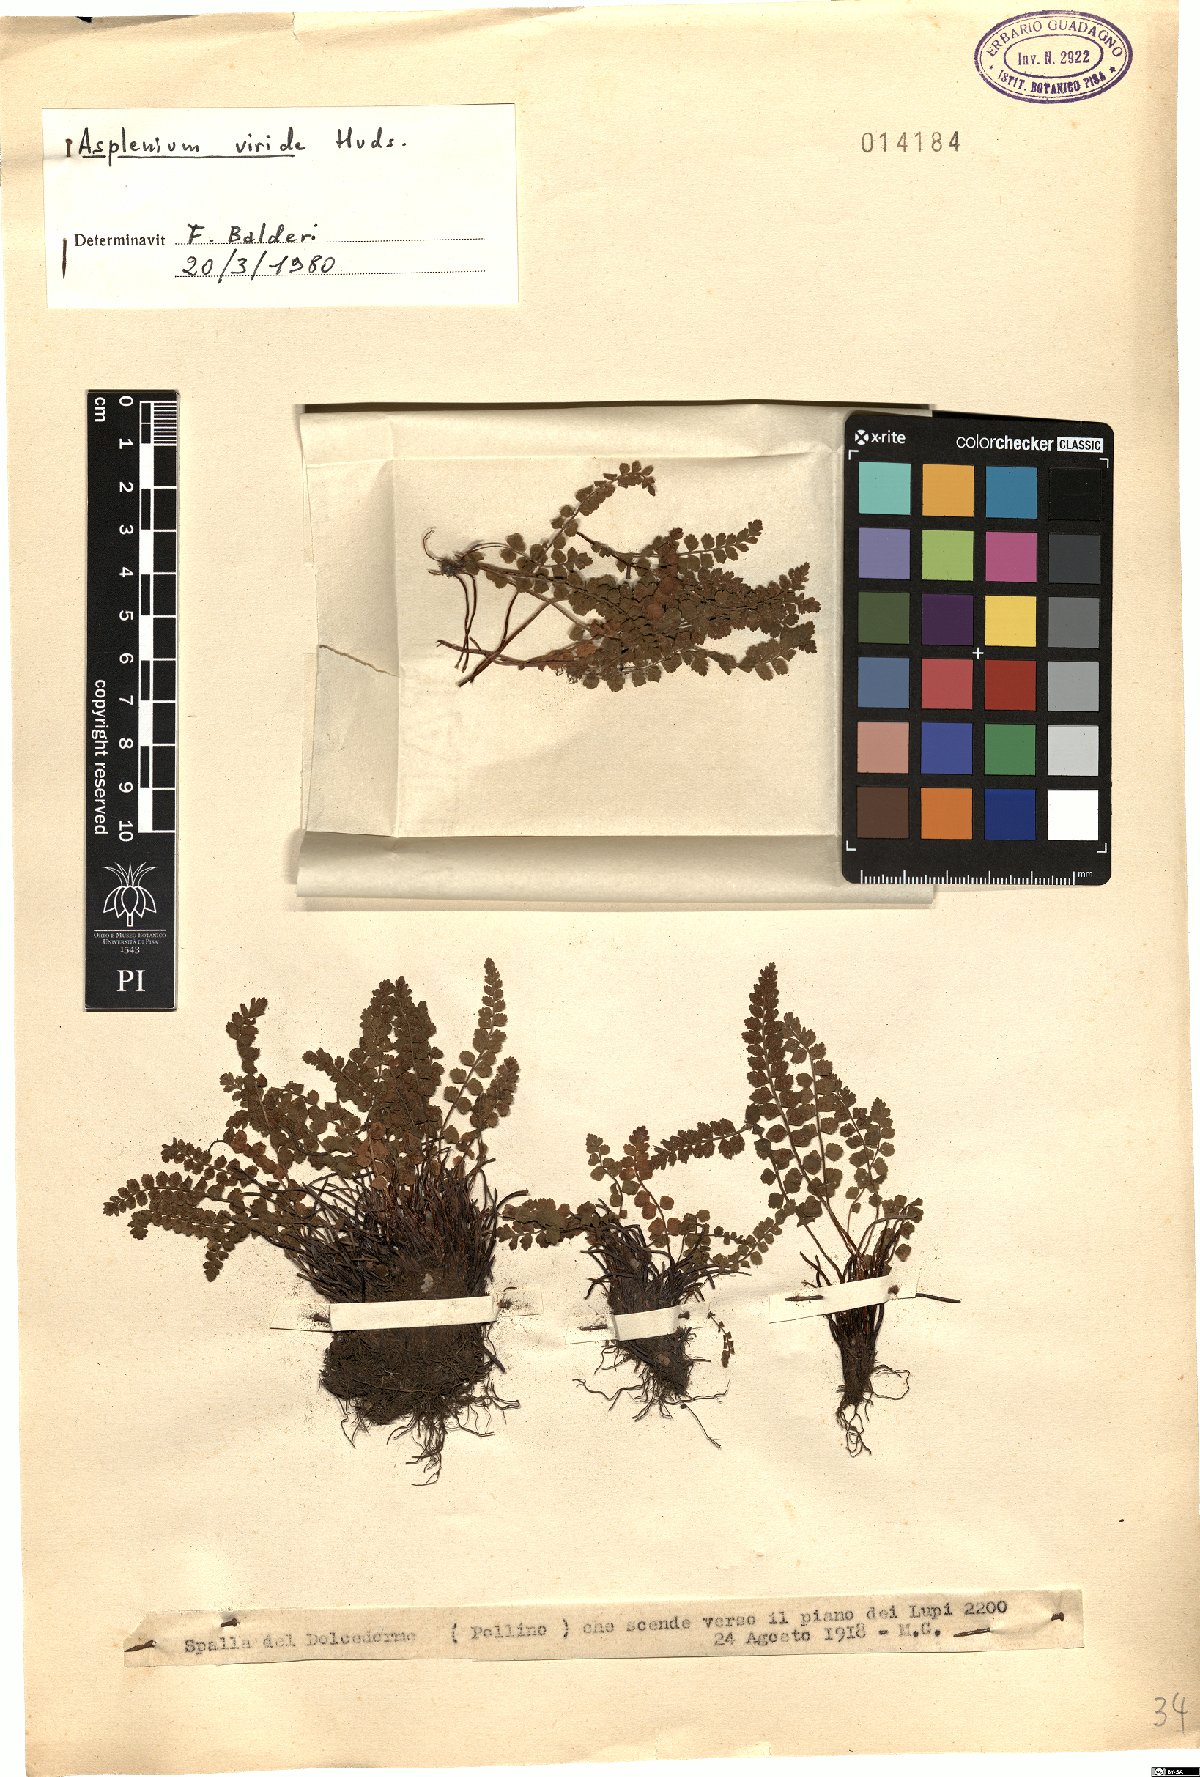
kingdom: Plantae
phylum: Tracheophyta
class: Polypodiopsida
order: Polypodiales
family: Aspleniaceae
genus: Asplenium
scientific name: Asplenium viride
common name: Green spleenwort
